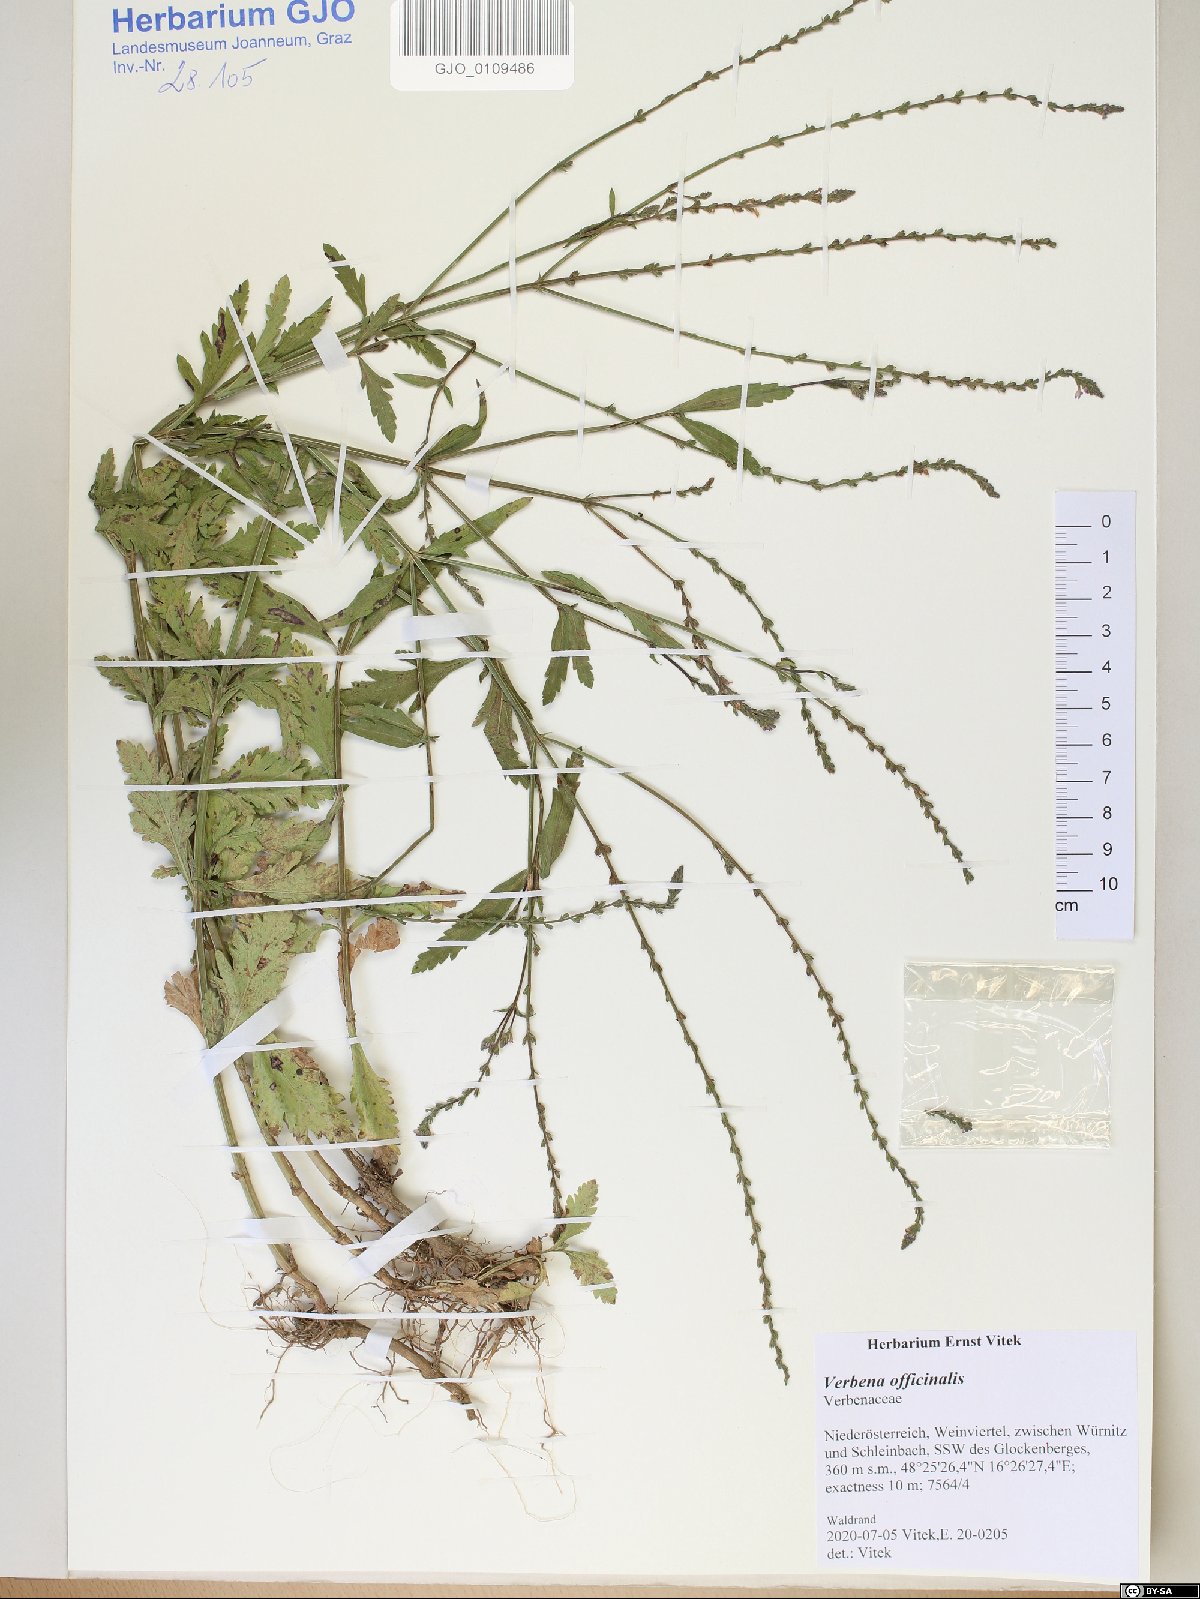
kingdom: Plantae
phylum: Tracheophyta
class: Magnoliopsida
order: Lamiales
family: Verbenaceae
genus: Verbena
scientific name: Verbena officinalis
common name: Vervain
